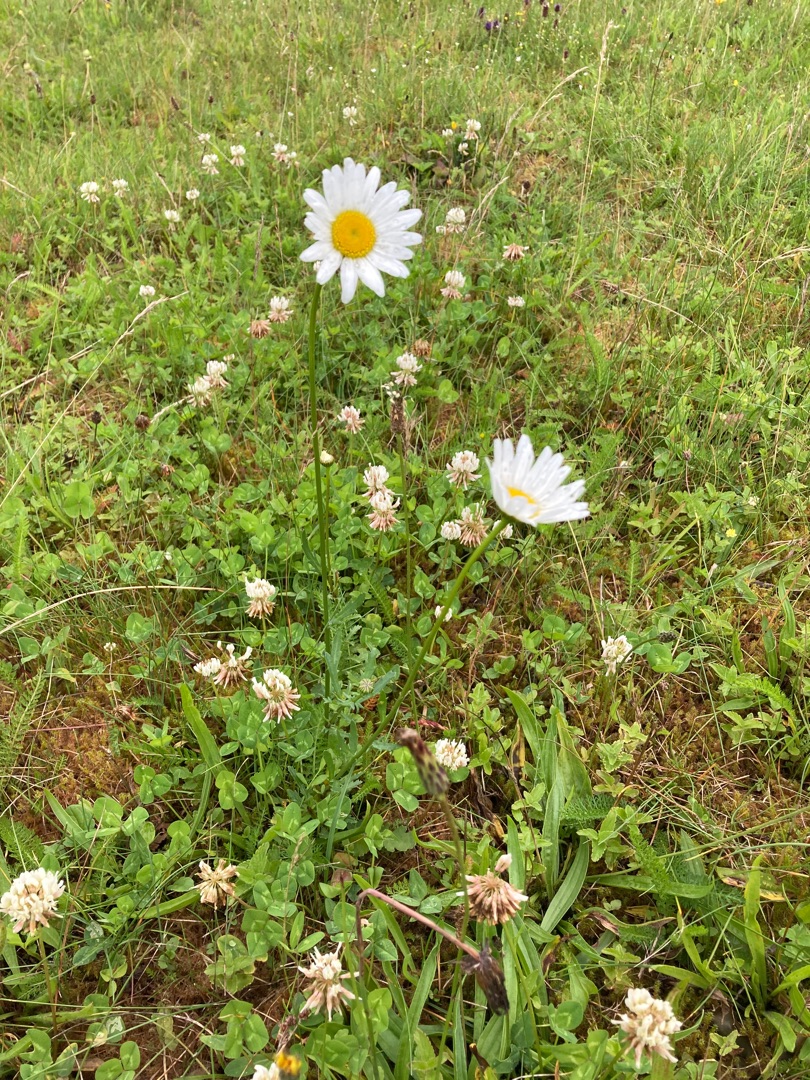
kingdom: Plantae
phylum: Tracheophyta
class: Magnoliopsida
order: Asterales
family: Asteraceae
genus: Leucanthemum
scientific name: Leucanthemum vulgare
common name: Hvid okseøje
